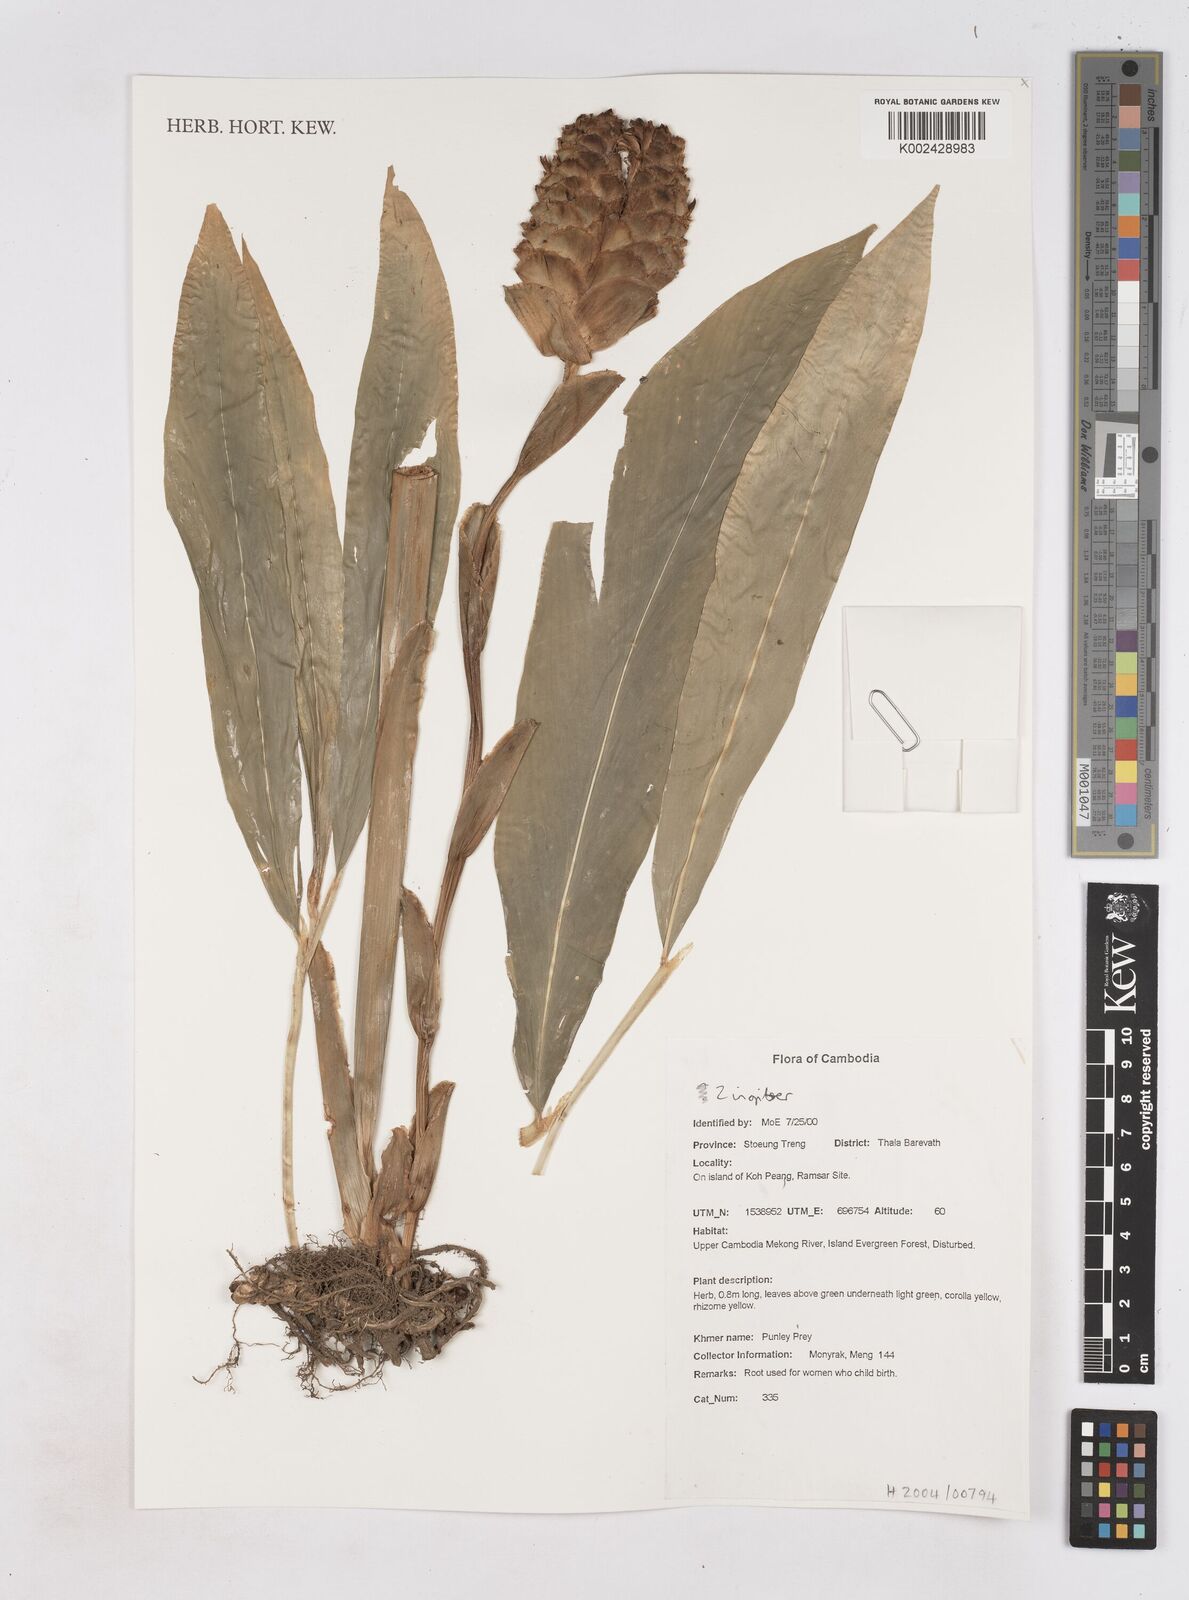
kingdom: Plantae
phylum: Tracheophyta
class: Liliopsida
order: Zingiberales
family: Zingiberaceae
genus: Zingiber
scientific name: Zingiber
